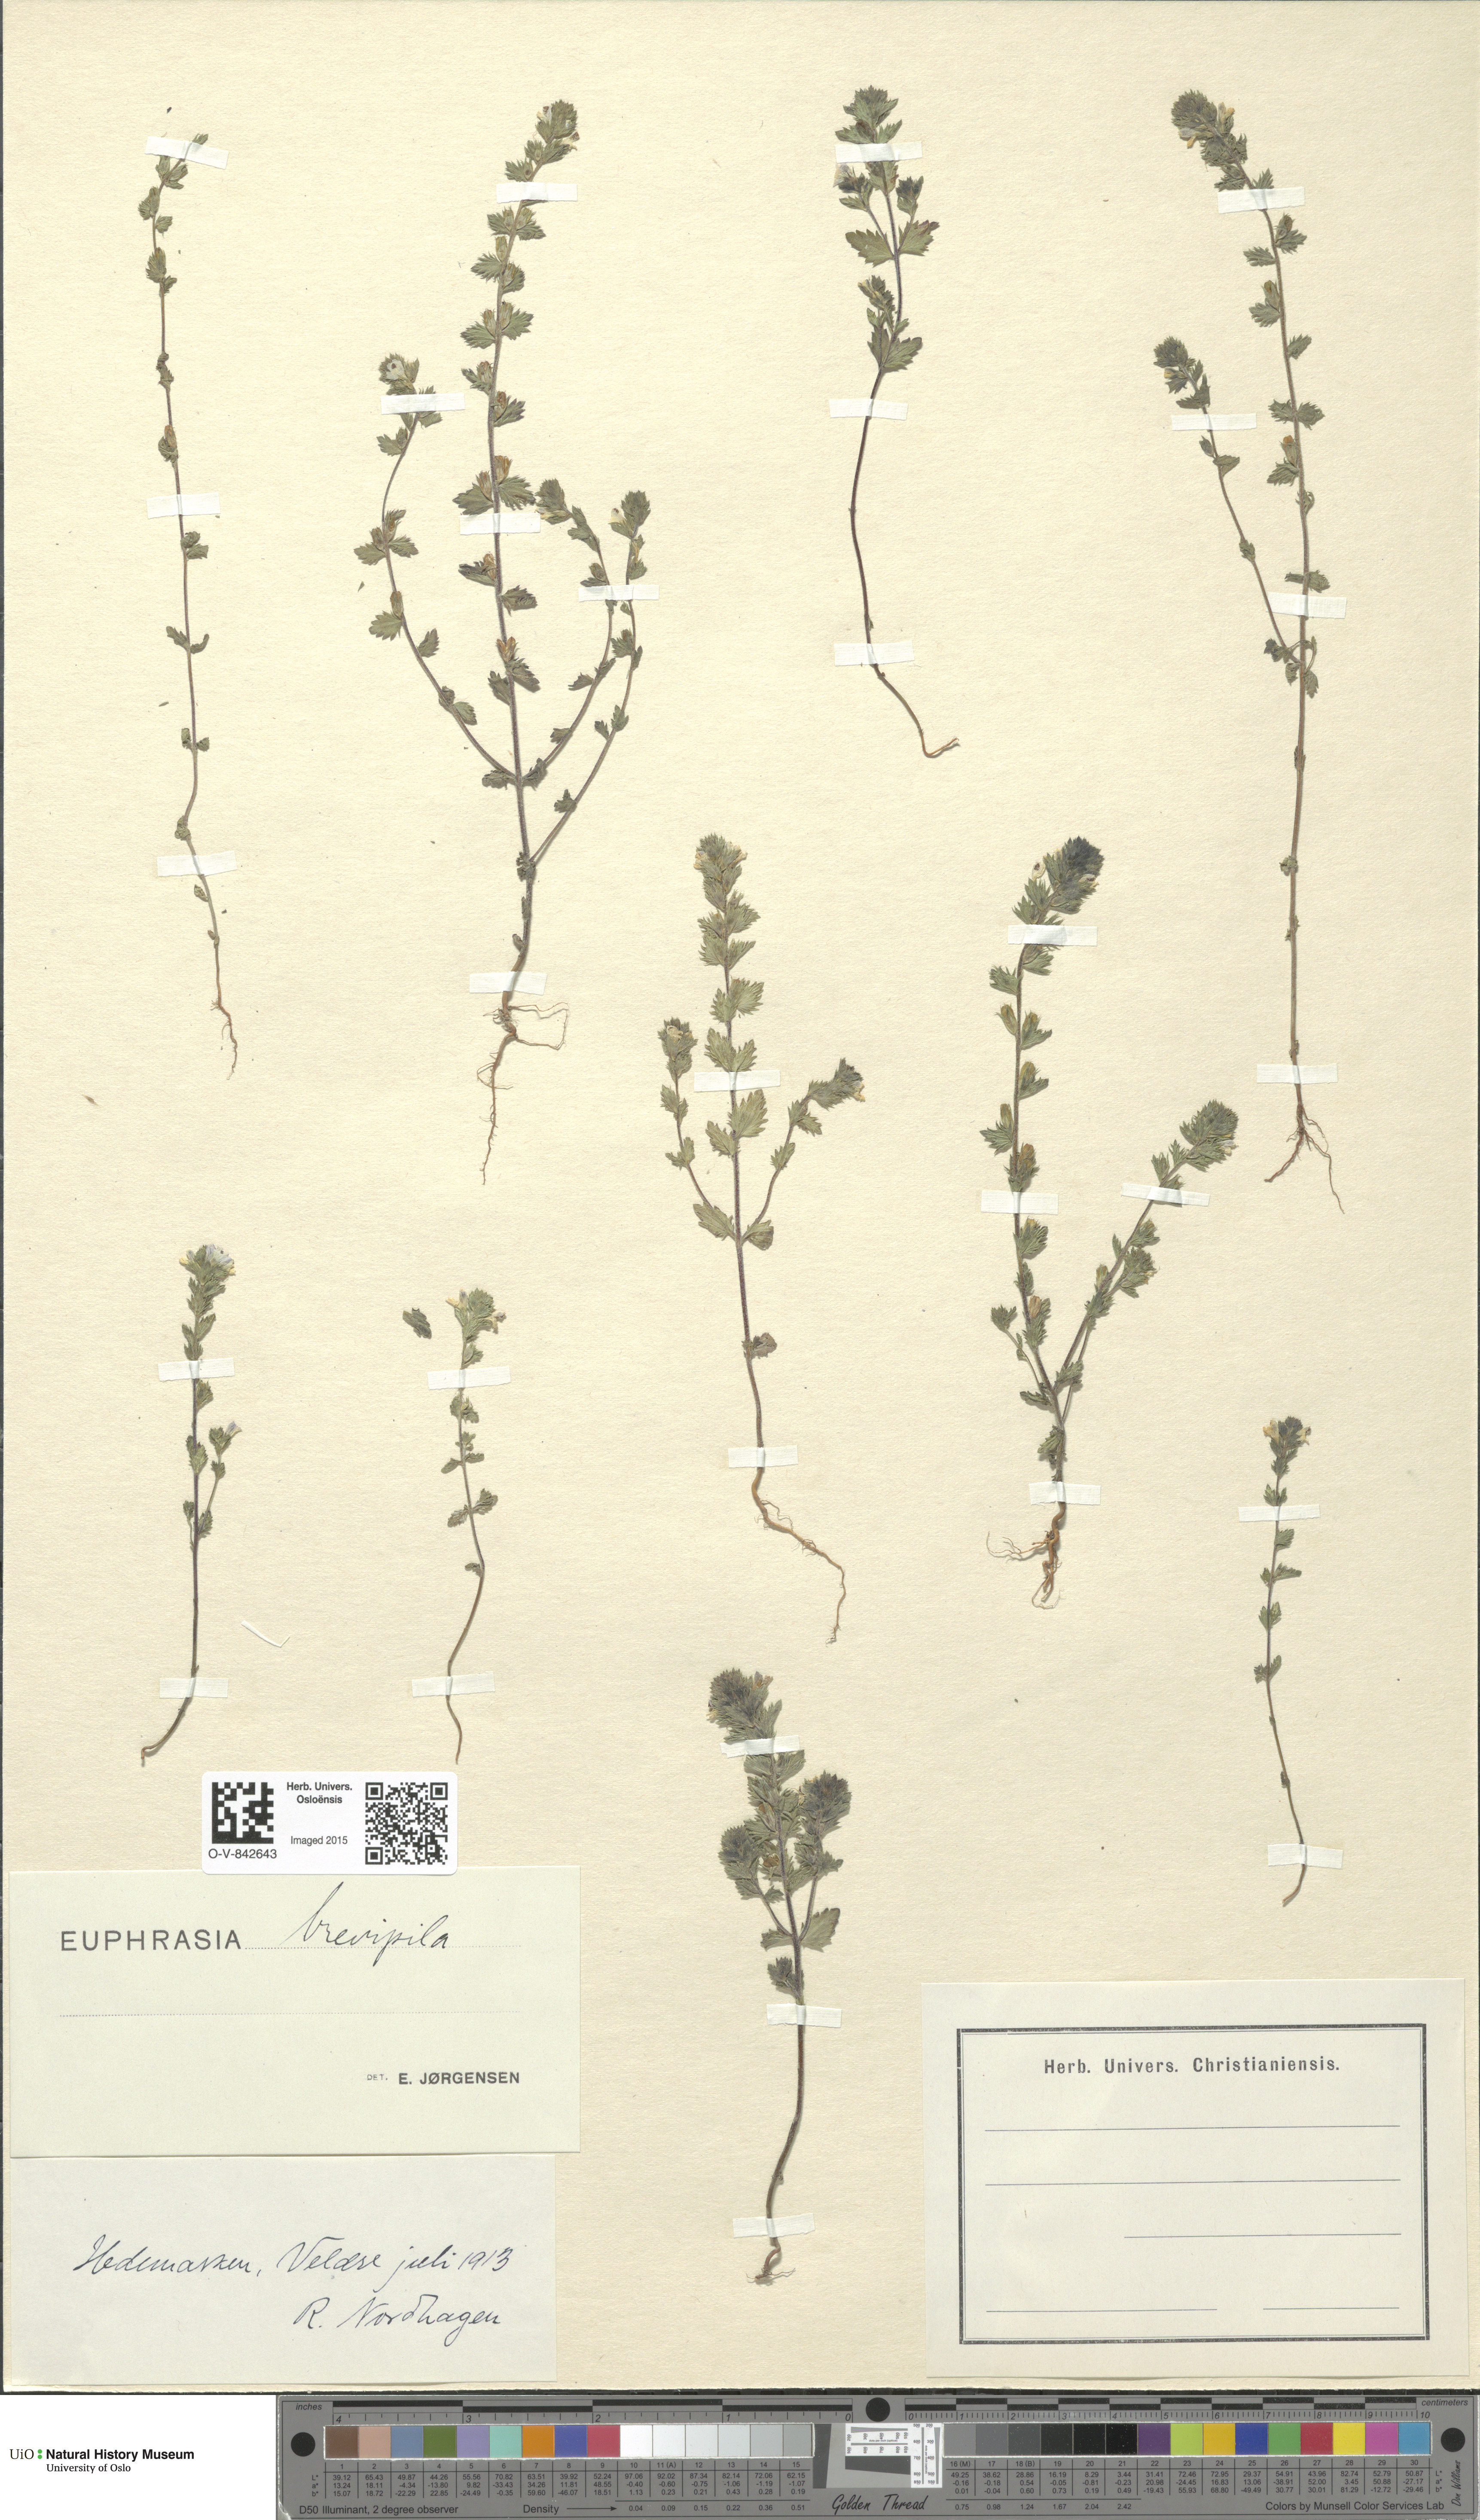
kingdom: Plantae
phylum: Tracheophyta
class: Magnoliopsida
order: Lamiales
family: Orobanchaceae
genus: Euphrasia
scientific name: Euphrasia vernalis
